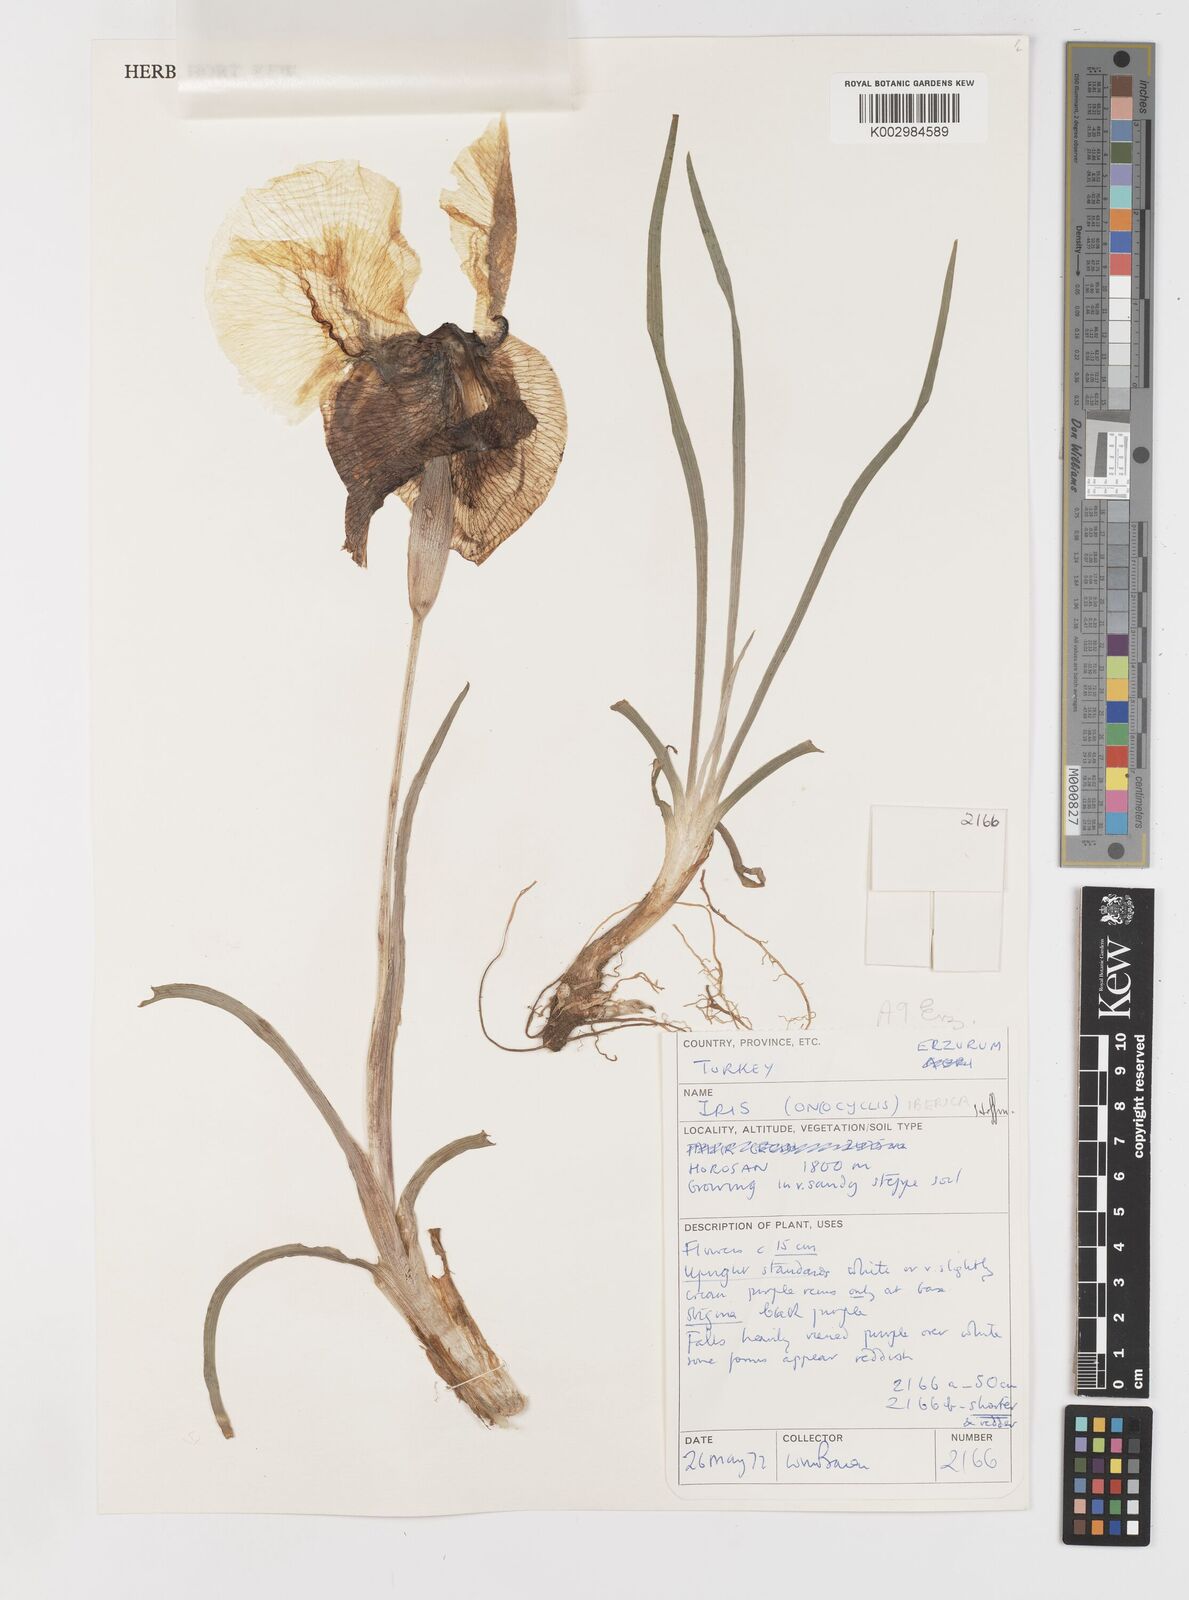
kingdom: Plantae
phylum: Tracheophyta
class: Liliopsida
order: Asparagales
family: Iridaceae
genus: Iris
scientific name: Iris iberica
